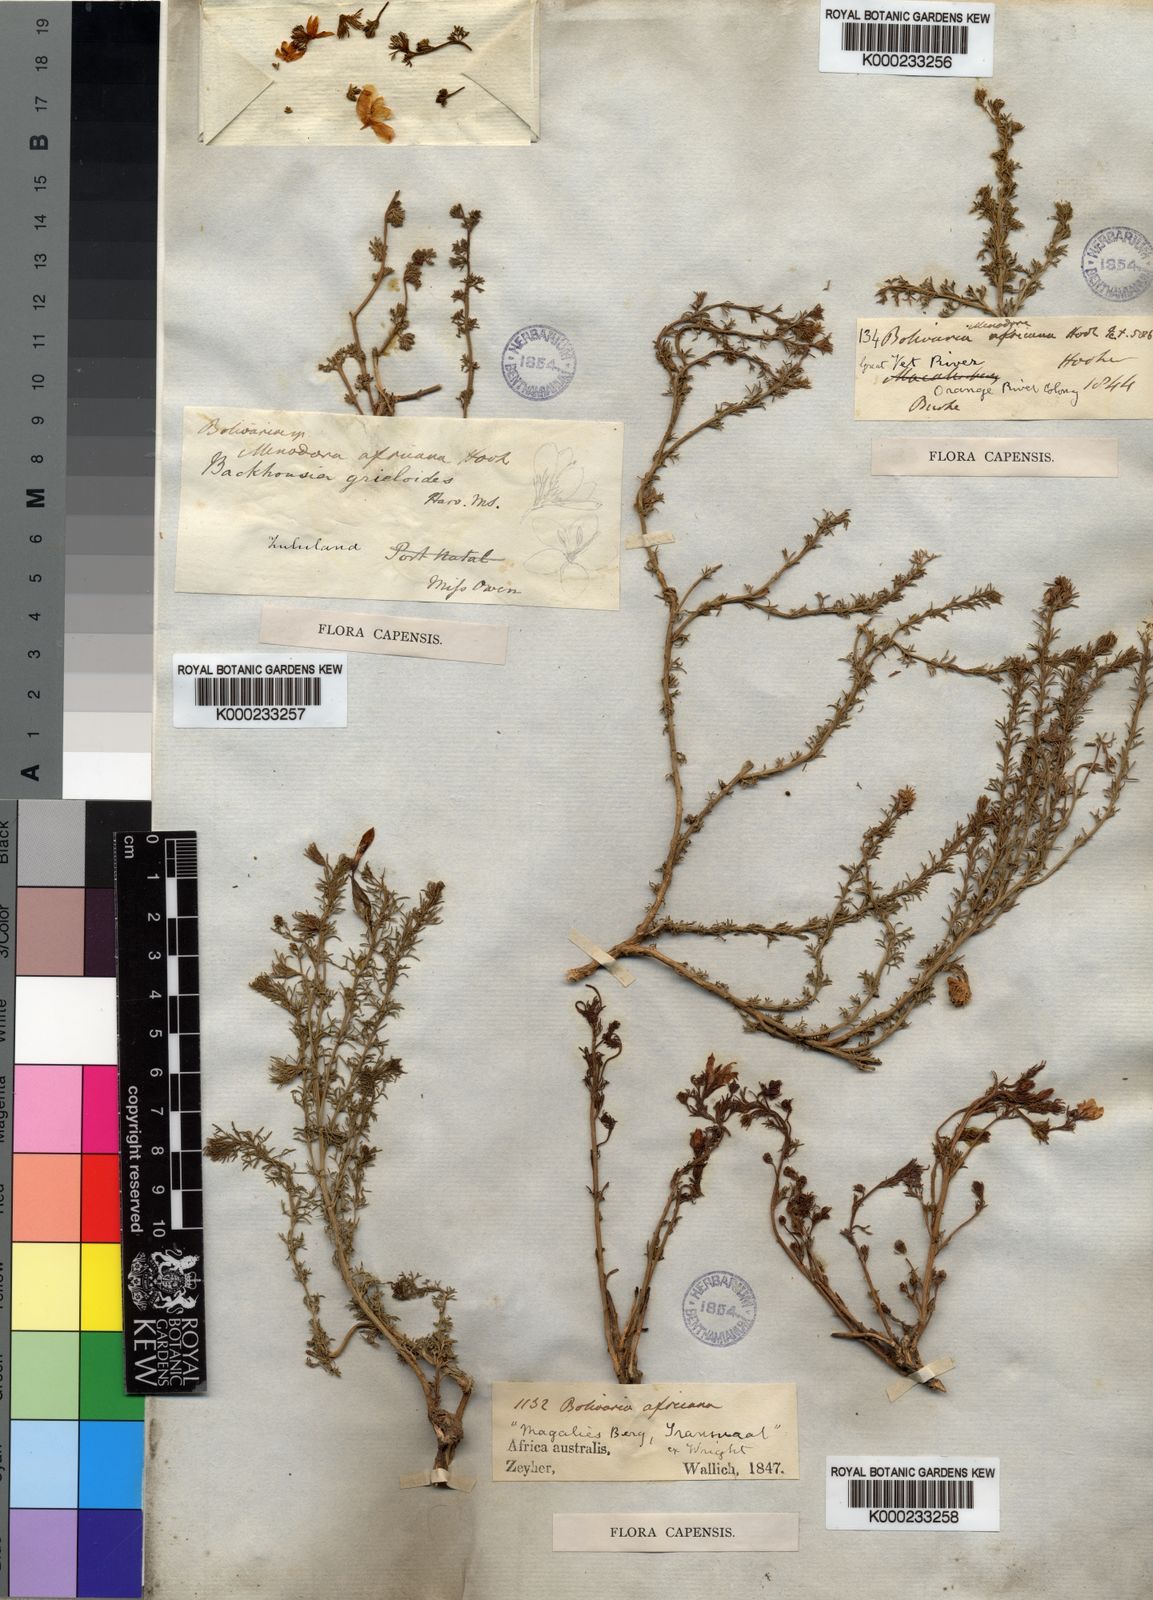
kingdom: Plantae
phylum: Tracheophyta
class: Magnoliopsida
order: Lamiales
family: Oleaceae
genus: Menodora
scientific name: Menodora africana
